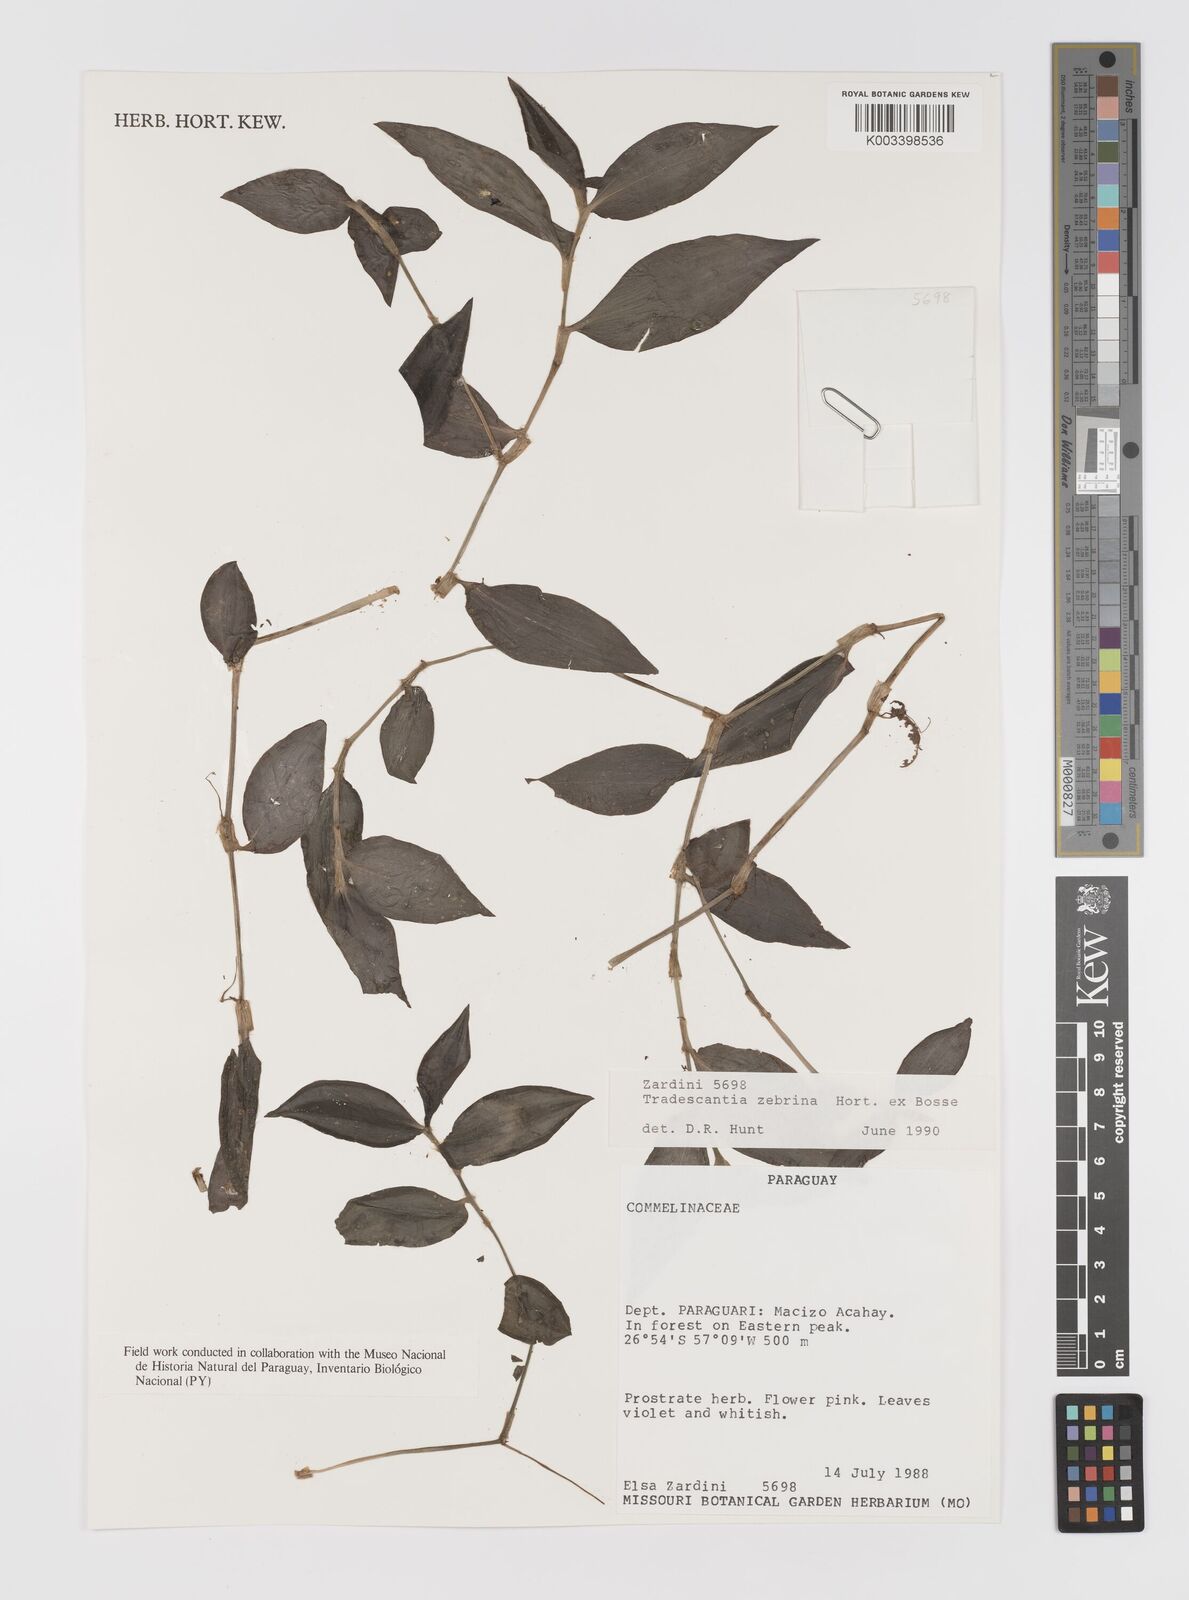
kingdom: Plantae
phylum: Tracheophyta
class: Liliopsida
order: Commelinales
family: Commelinaceae
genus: Tradescantia
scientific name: Tradescantia zebrina
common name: Inchplant
